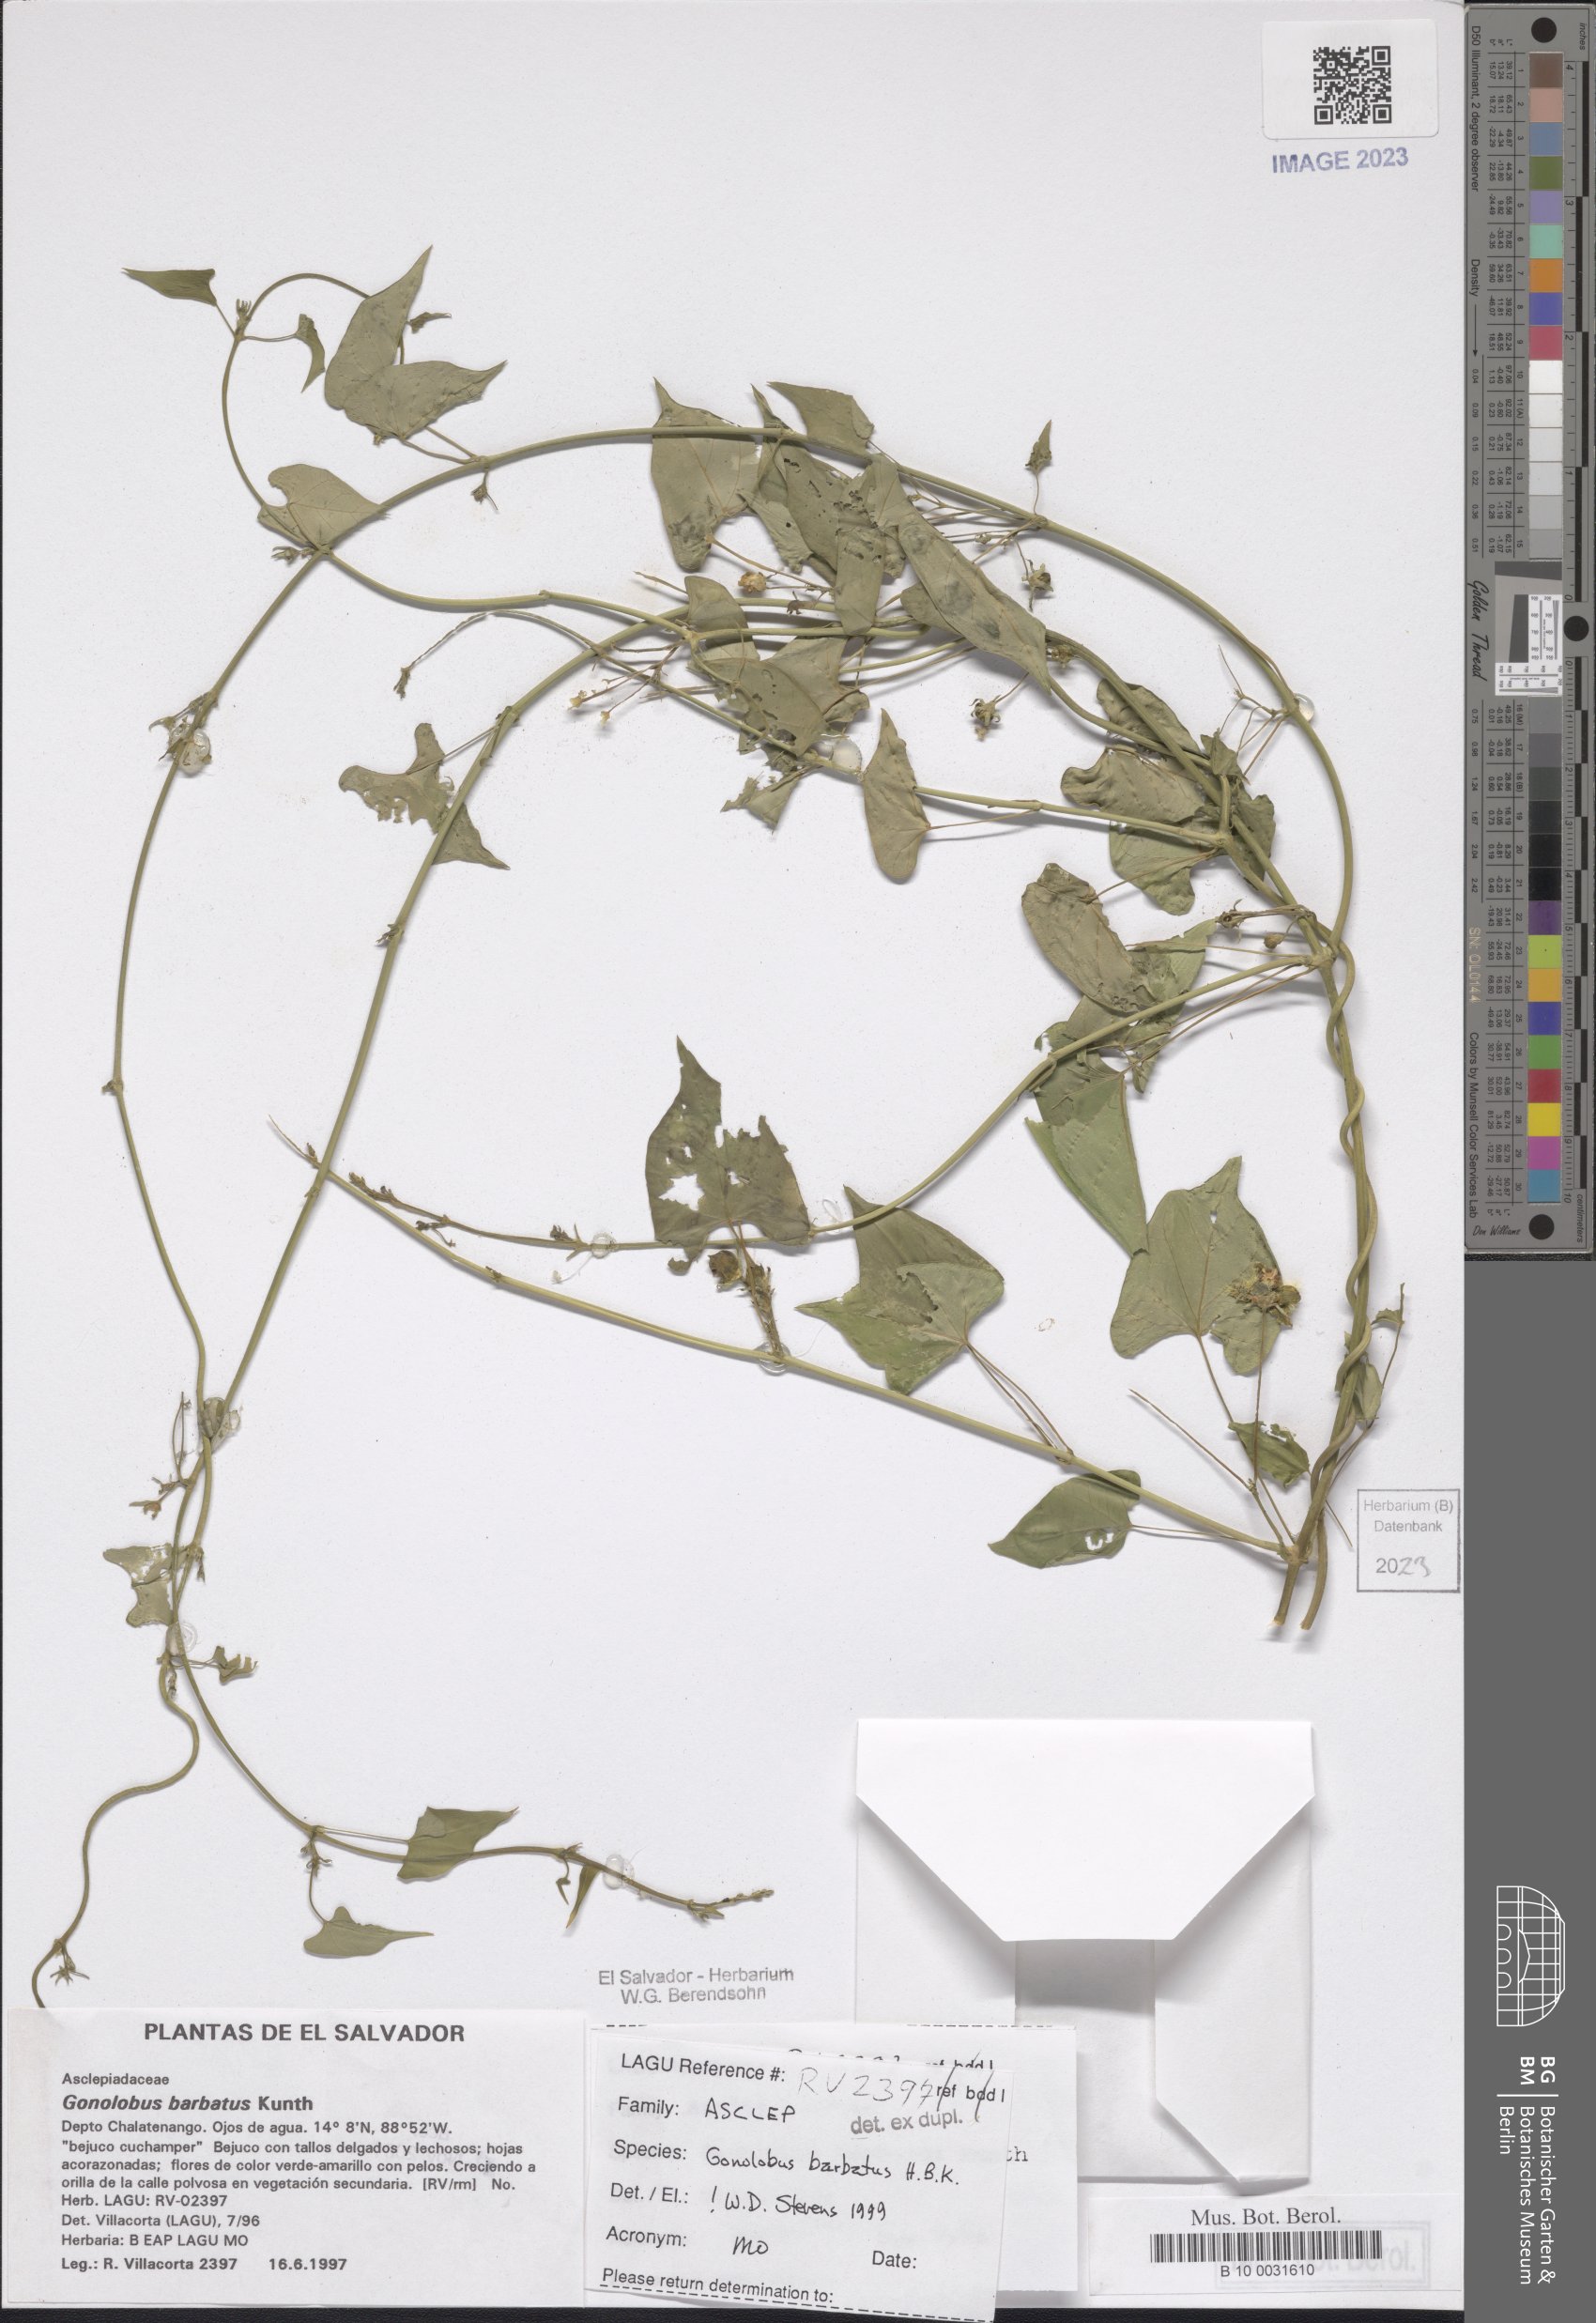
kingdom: Plantae
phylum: Tracheophyta
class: Magnoliopsida
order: Gentianales
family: Apocynaceae
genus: Gonolobus
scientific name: Gonolobus barbatus
